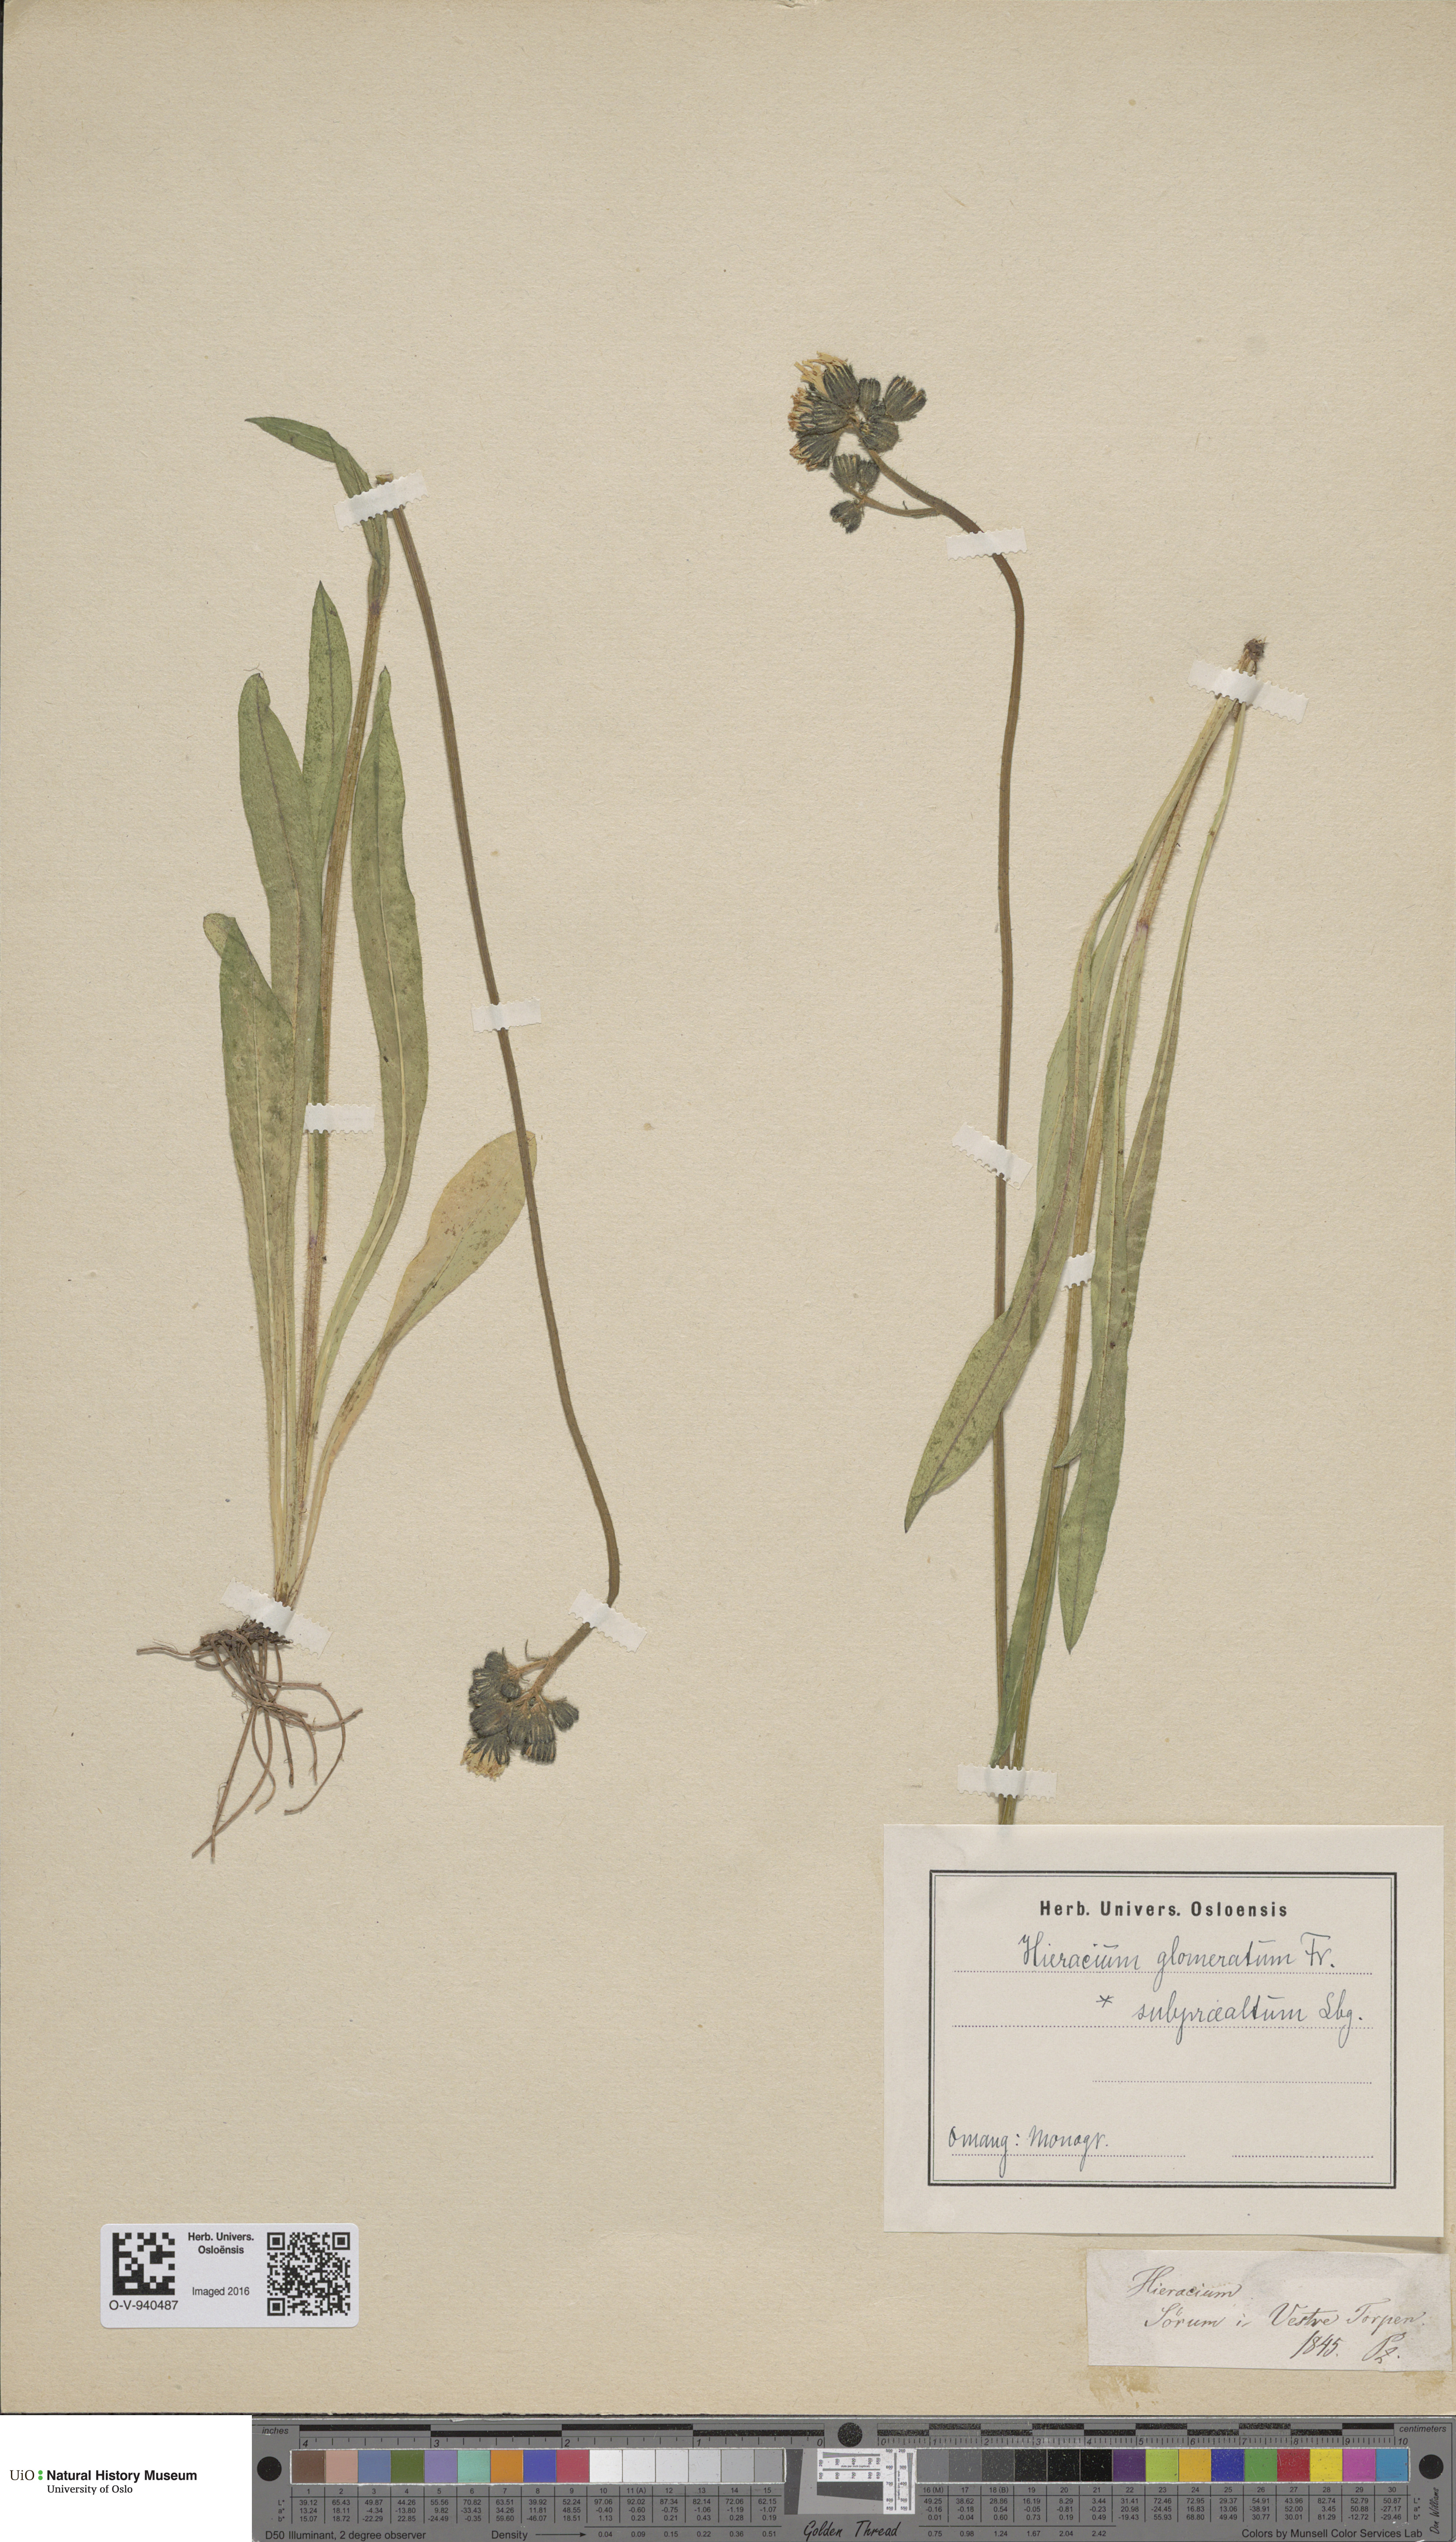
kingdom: Plantae
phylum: Tracheophyta
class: Magnoliopsida
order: Asterales
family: Asteraceae
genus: Pilosella
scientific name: Pilosella glomerata
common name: Queen devil hawkweed
